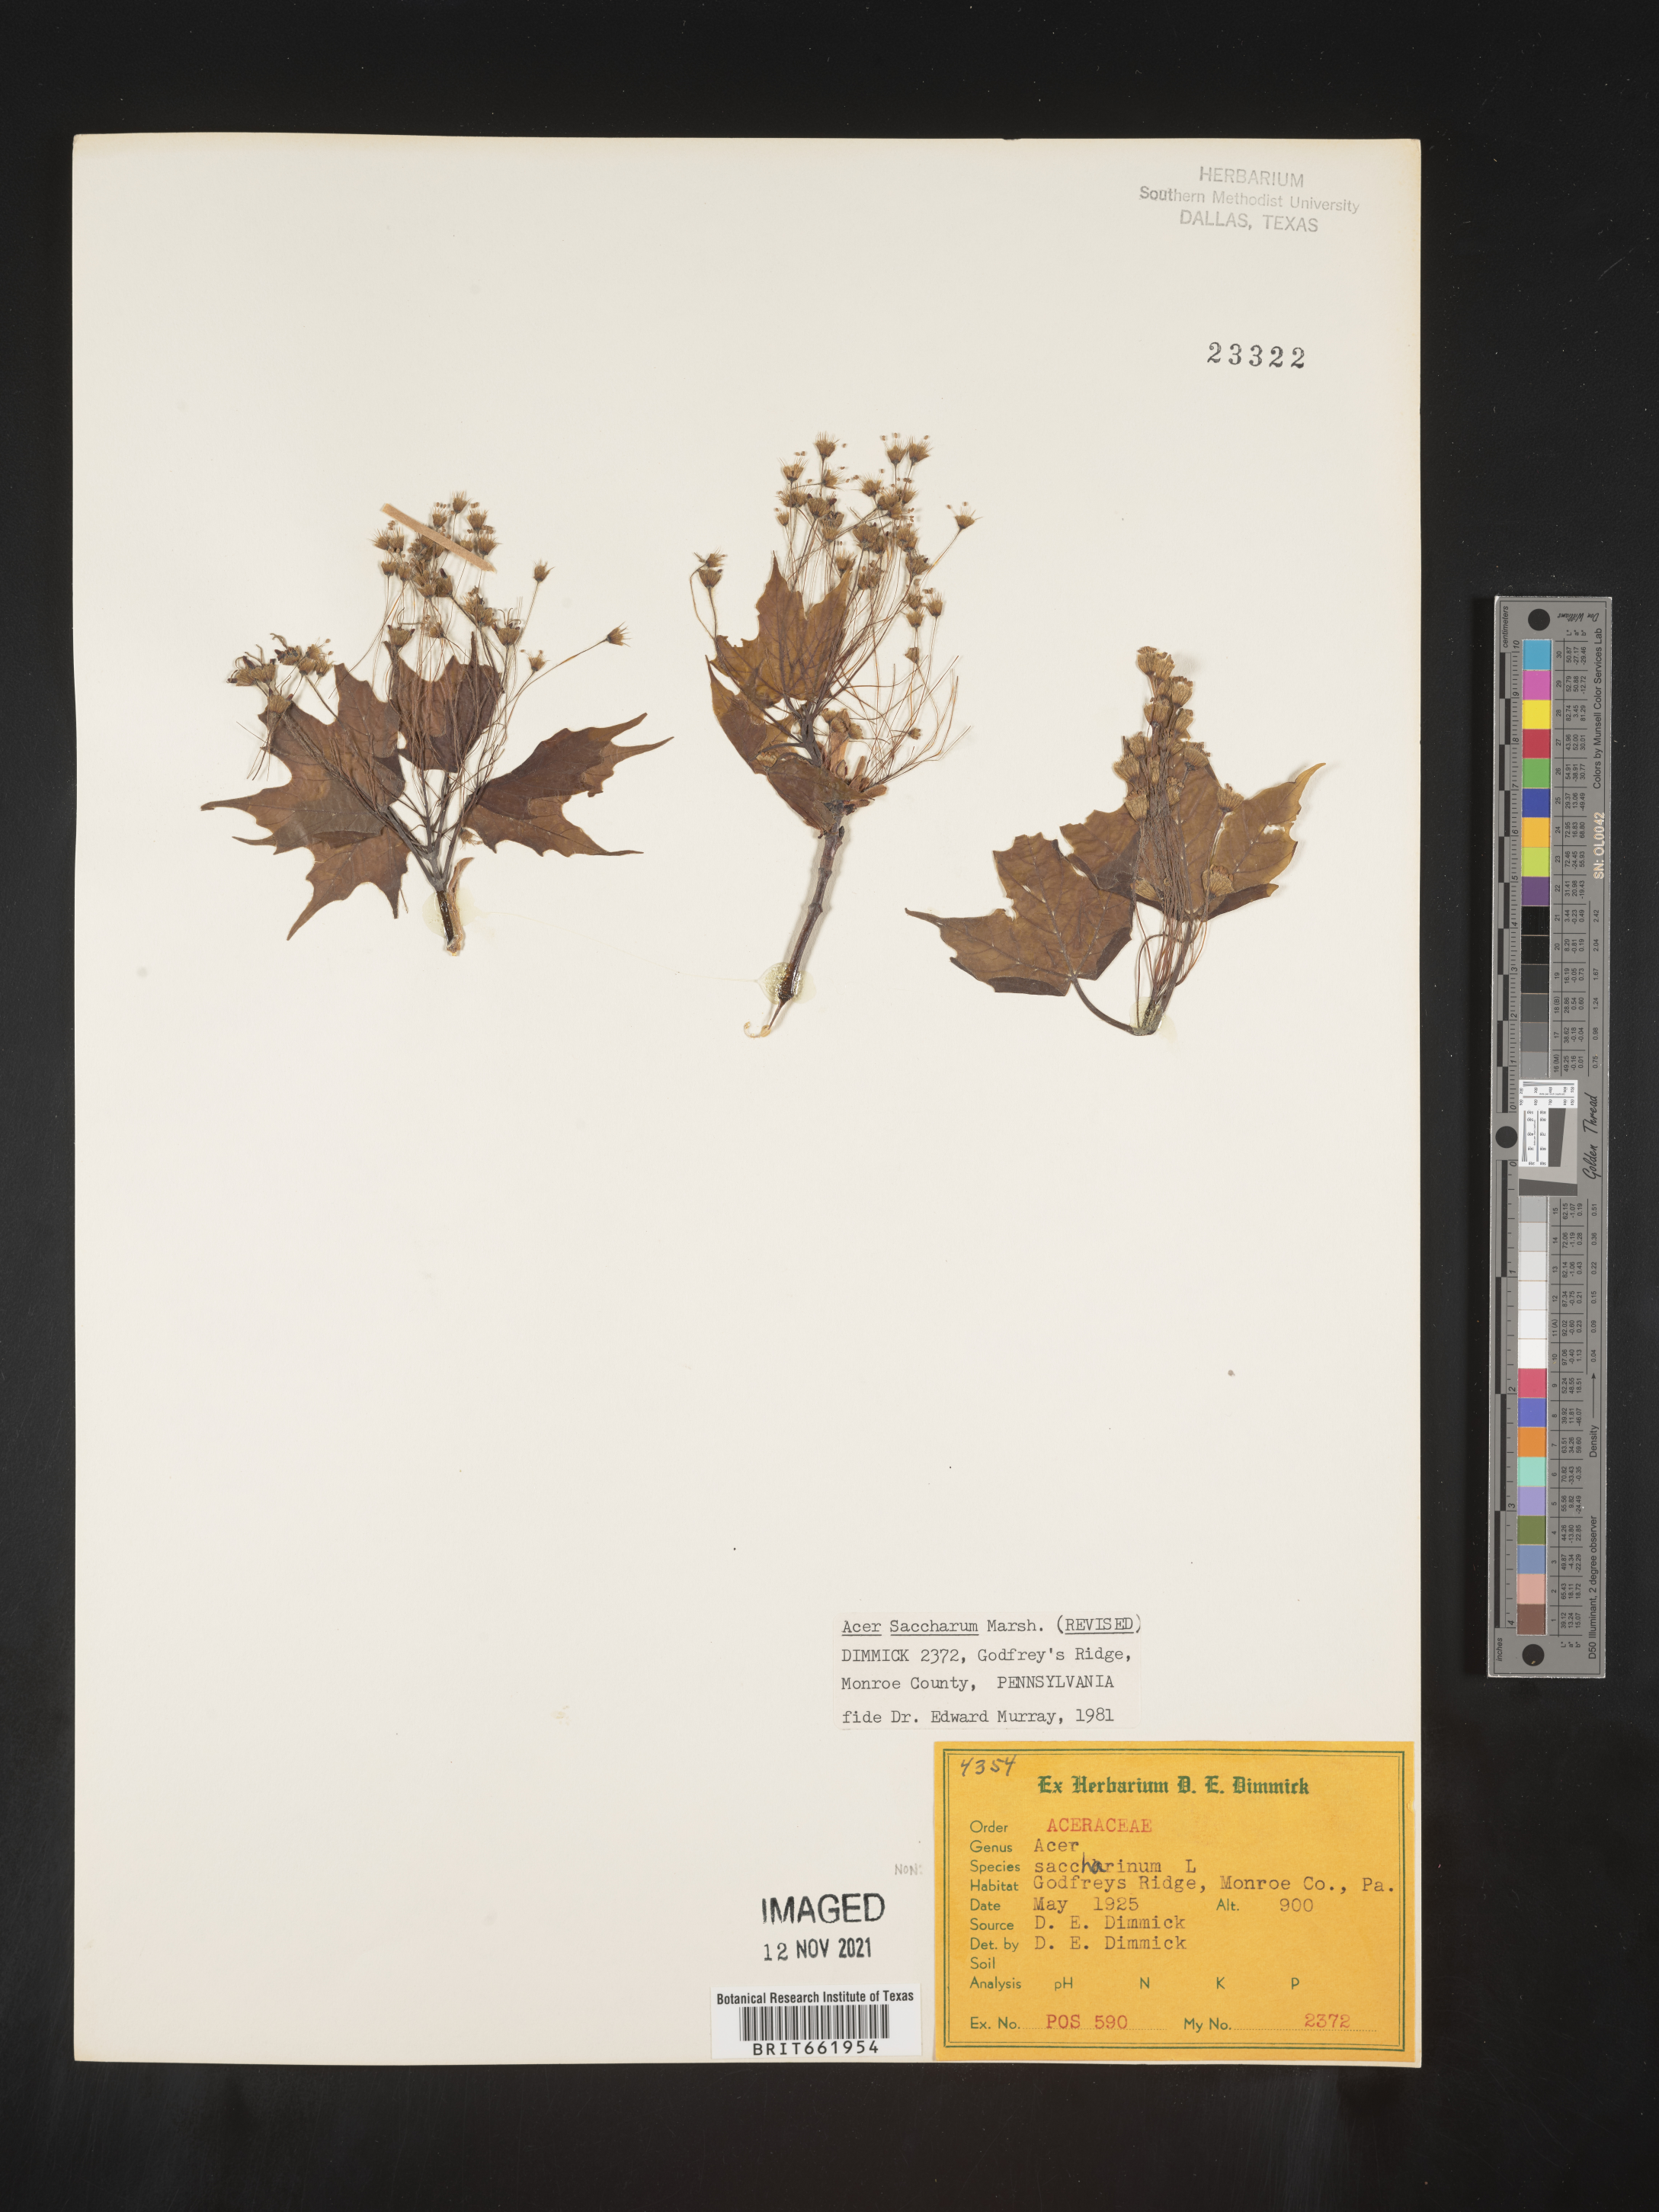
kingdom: Plantae
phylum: Tracheophyta
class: Magnoliopsida
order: Sapindales
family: Sapindaceae
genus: Acer
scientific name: Acer saccharum
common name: Sugar maple
